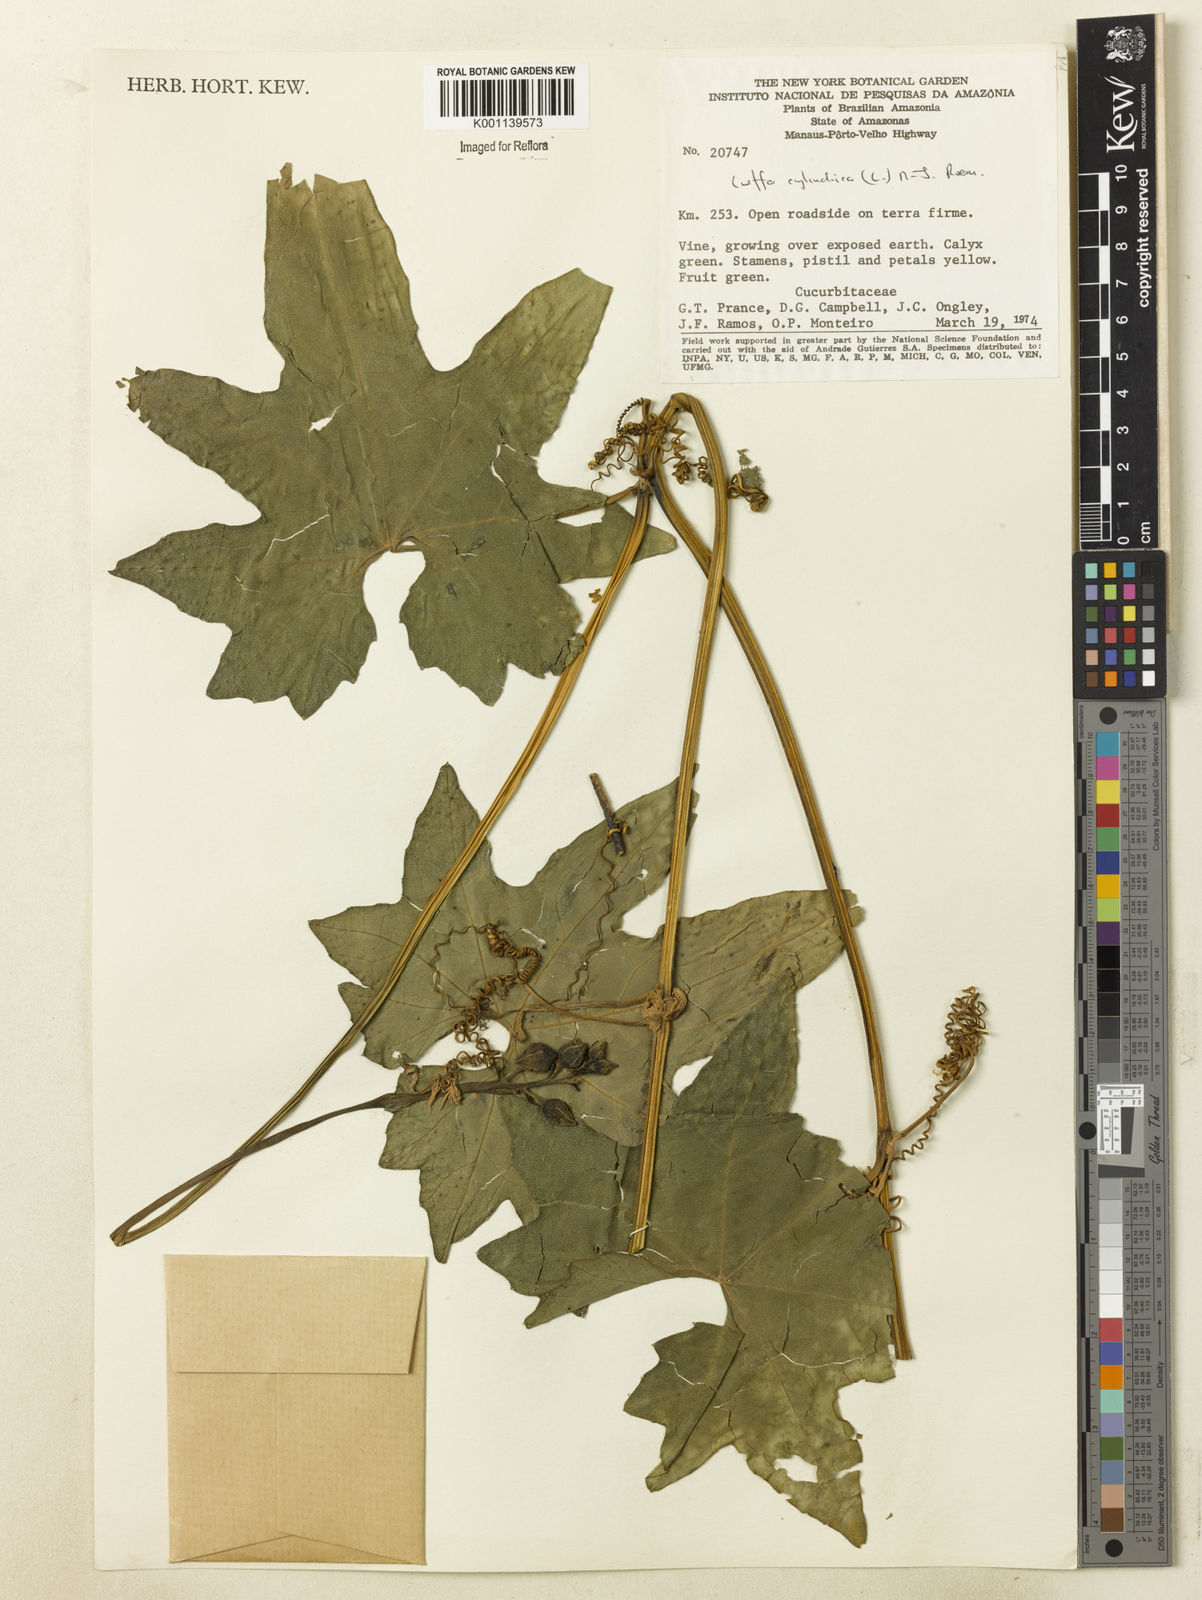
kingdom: Plantae
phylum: Tracheophyta
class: Magnoliopsida
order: Cucurbitales
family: Cucurbitaceae
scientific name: Cucurbitaceae
